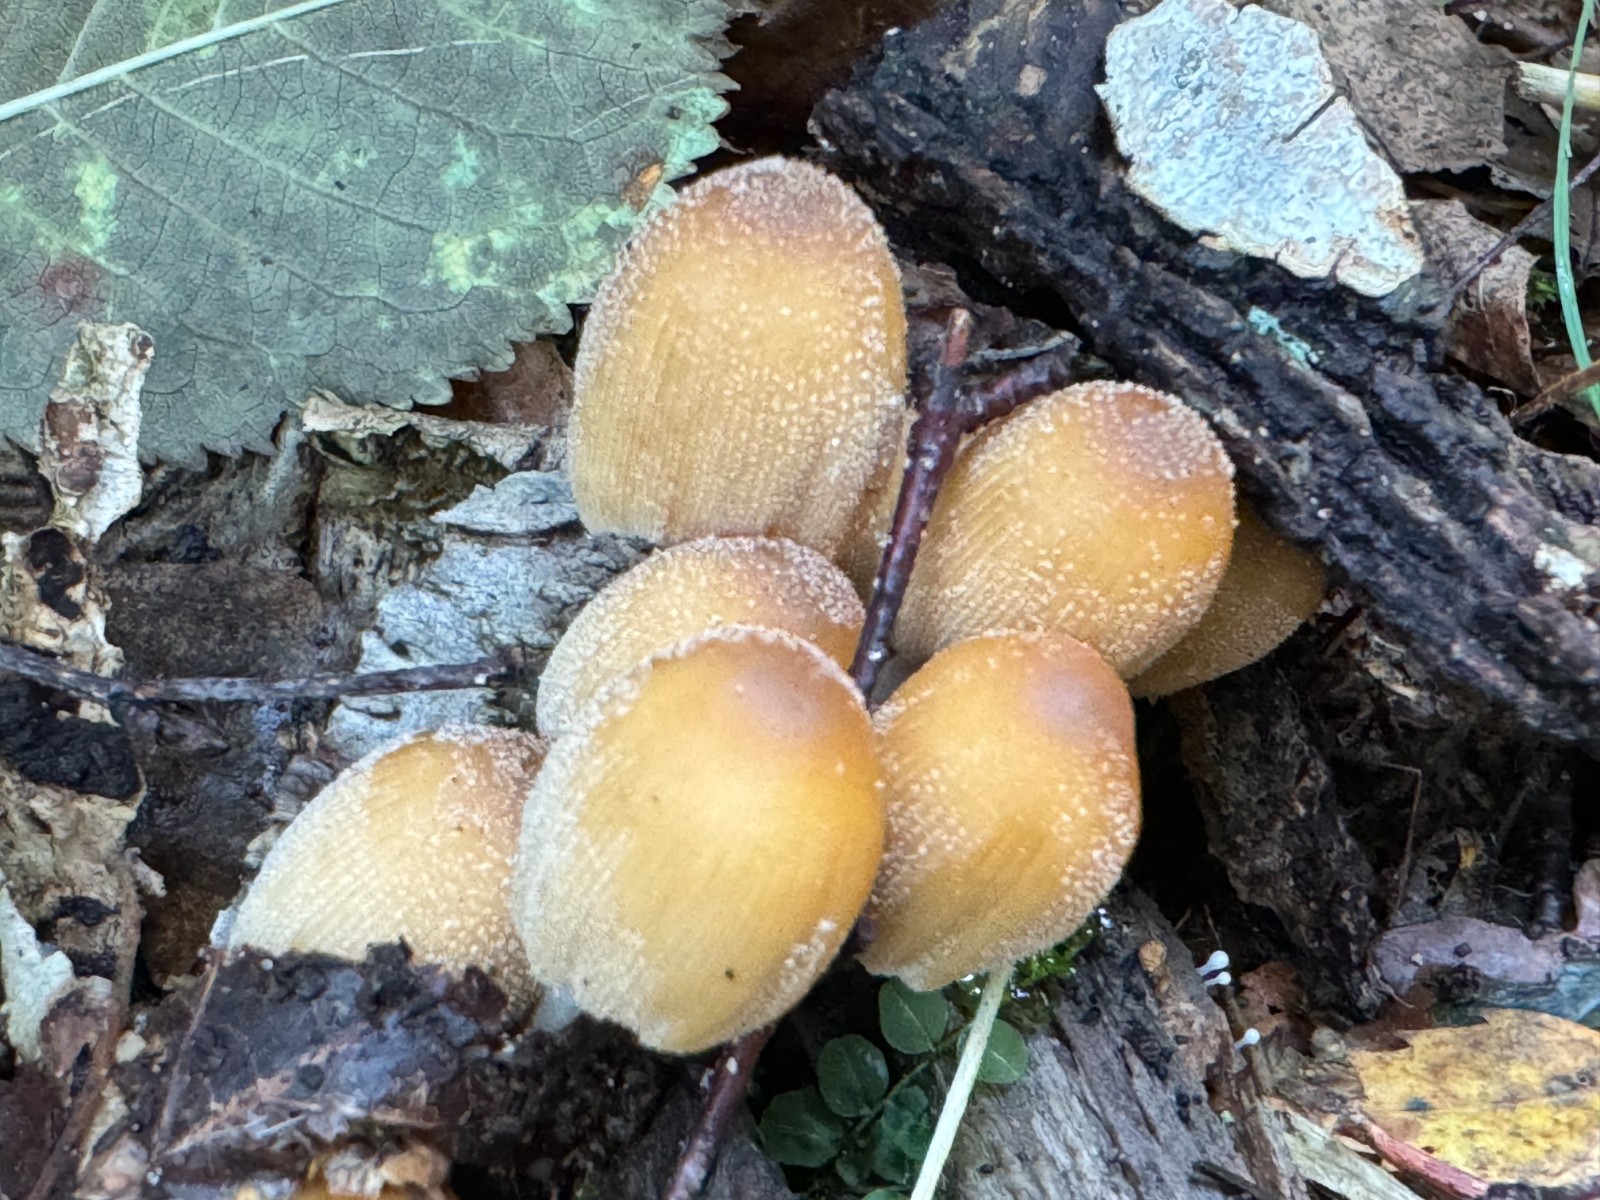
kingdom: Fungi
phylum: Basidiomycota
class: Agaricomycetes
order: Agaricales
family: Psathyrellaceae
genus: Coprinellus
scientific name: Coprinellus micaceus
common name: glimmer-blækhat
